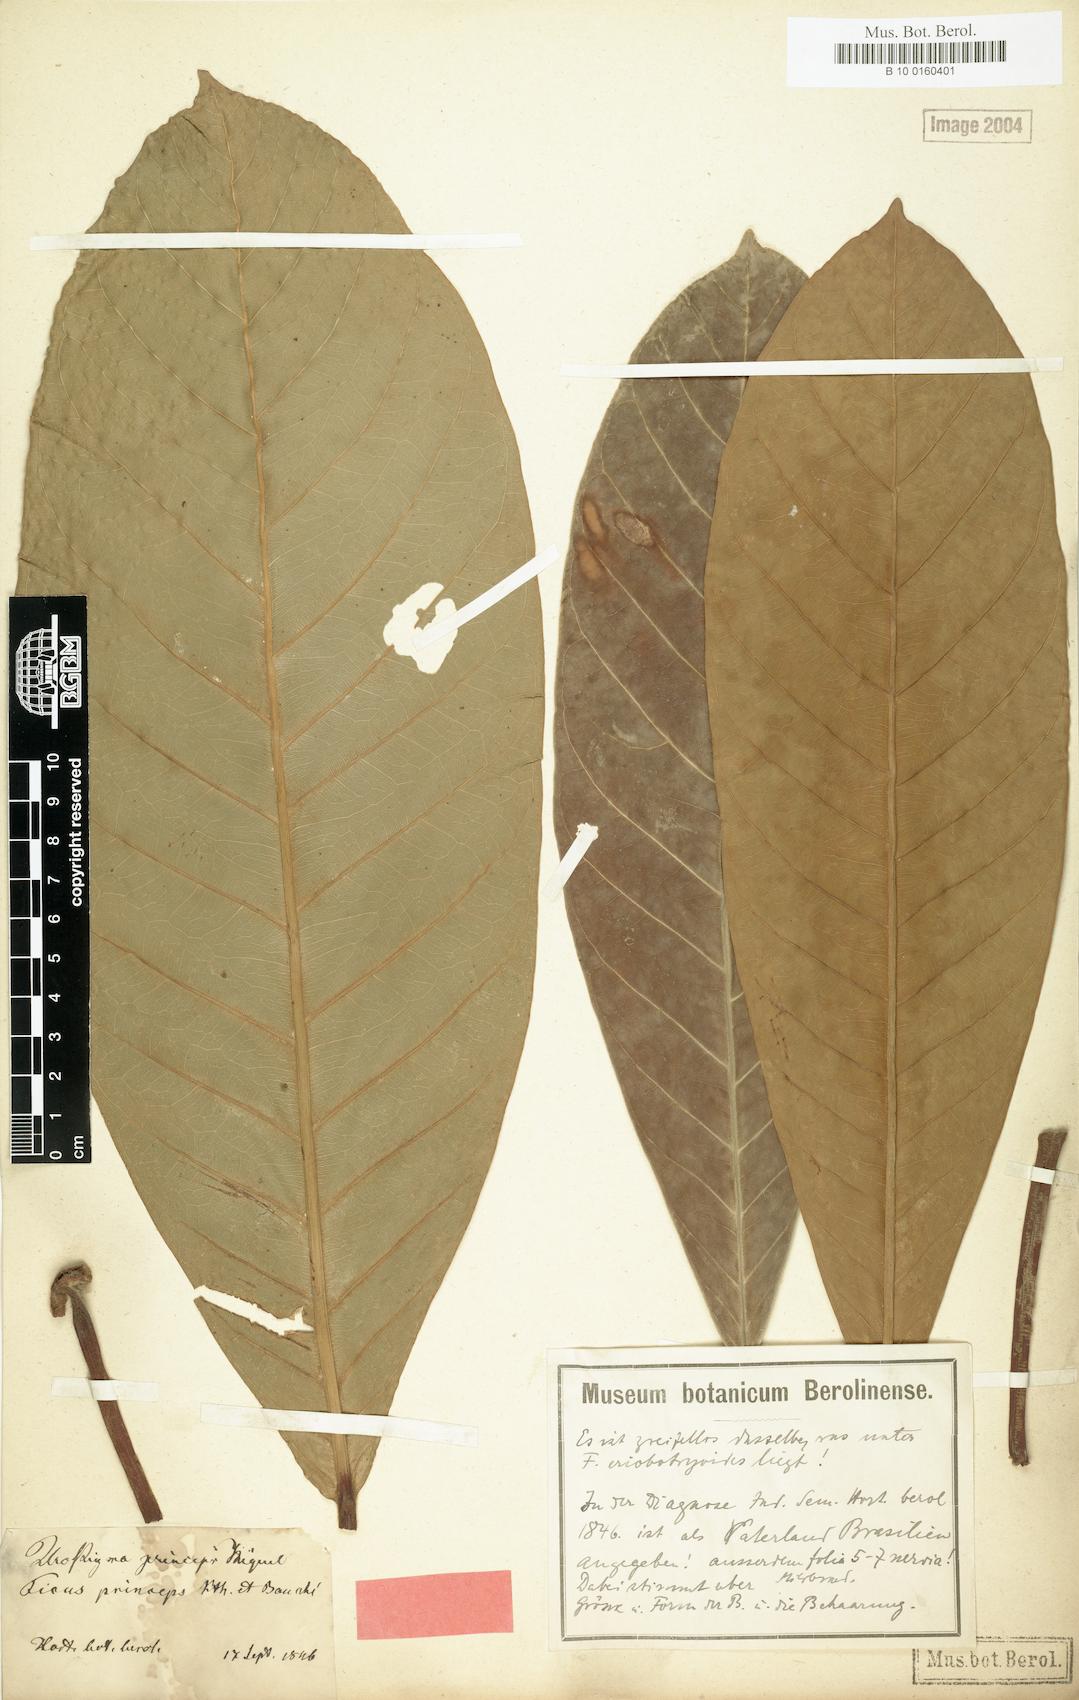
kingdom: Plantae
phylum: Tracheophyta
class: Magnoliopsida
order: Rosales
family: Moraceae
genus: Ficus
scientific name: Ficus
